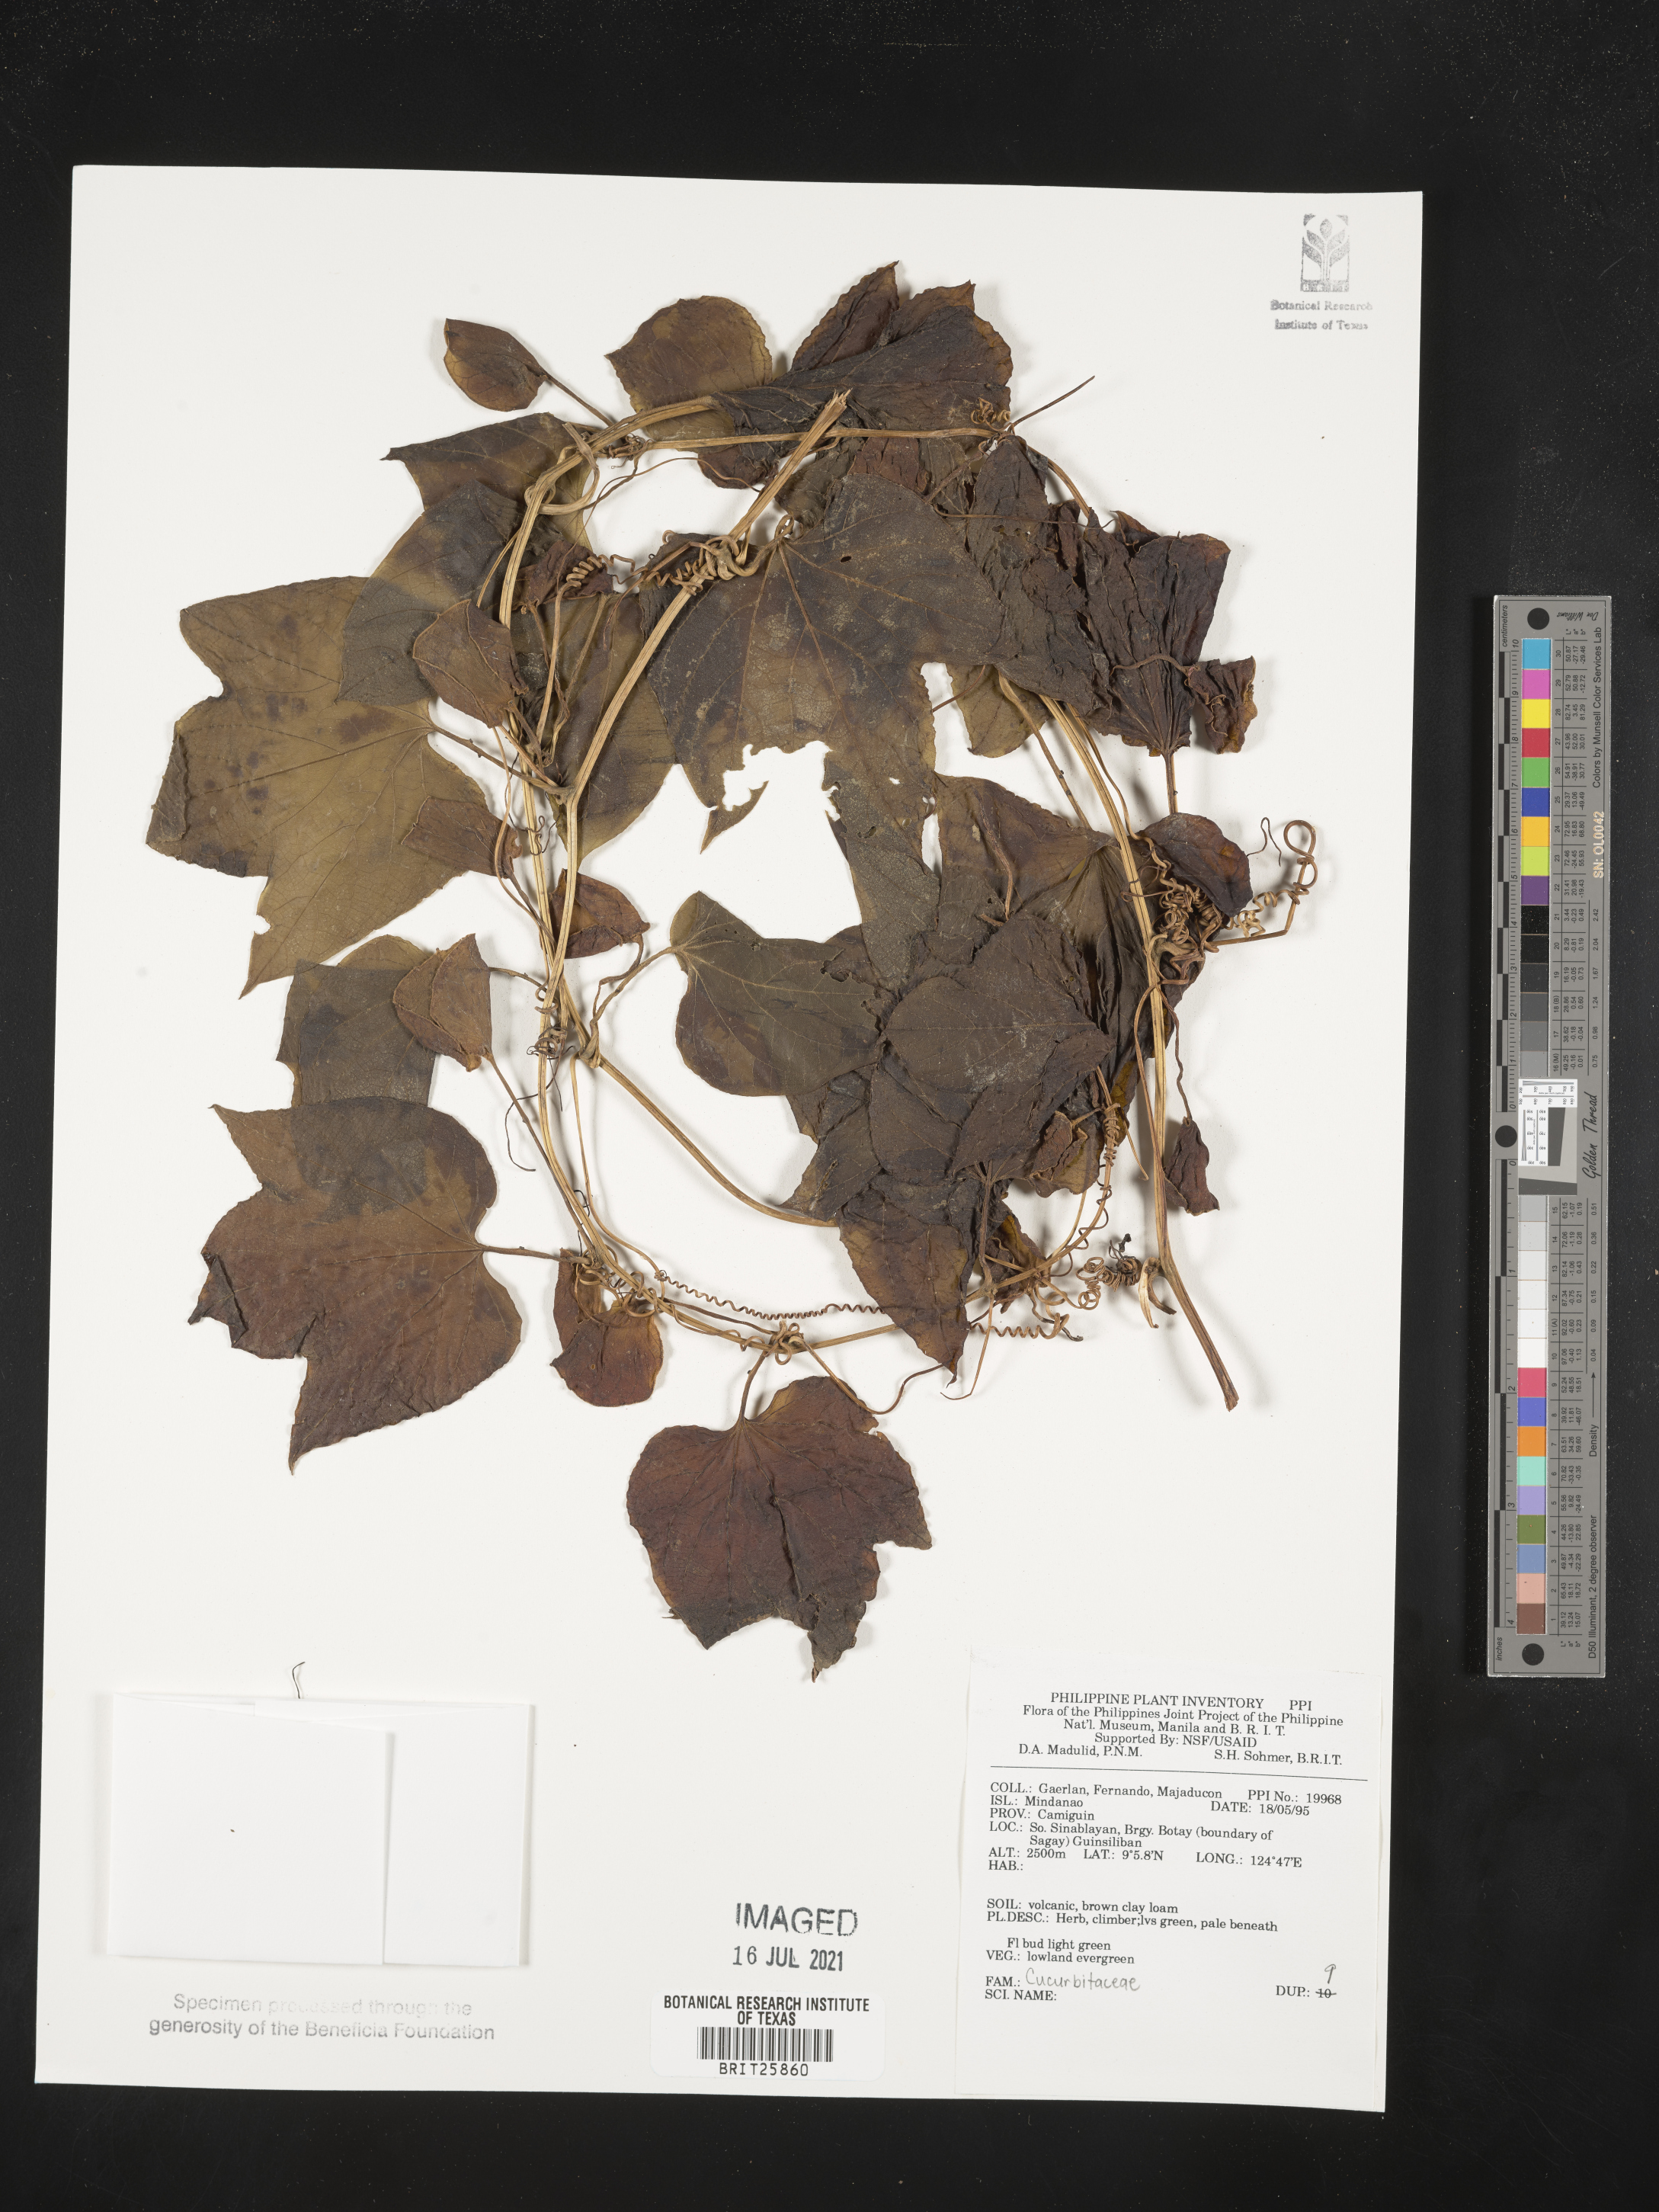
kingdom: Plantae
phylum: Tracheophyta
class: Magnoliopsida
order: Cucurbitales
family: Cucurbitaceae
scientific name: Cucurbitaceae
